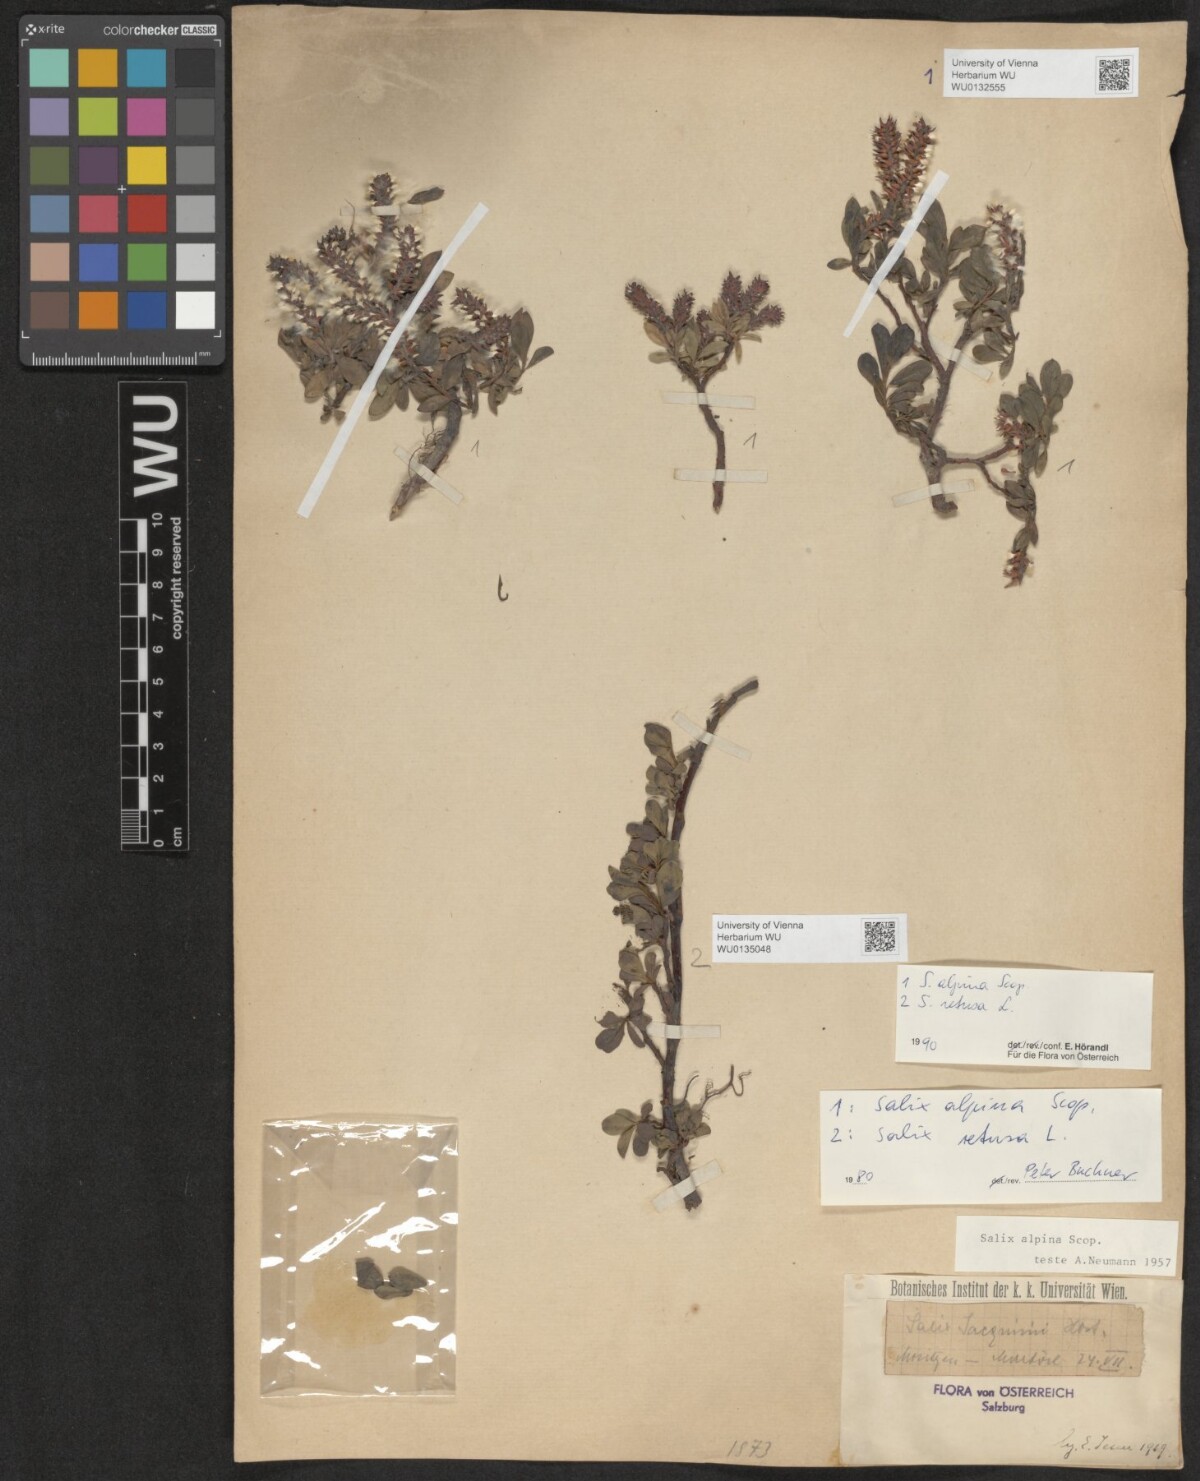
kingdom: Plantae
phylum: Tracheophyta
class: Magnoliopsida
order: Malpighiales
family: Salicaceae
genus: Salix
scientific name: Salix alpina
